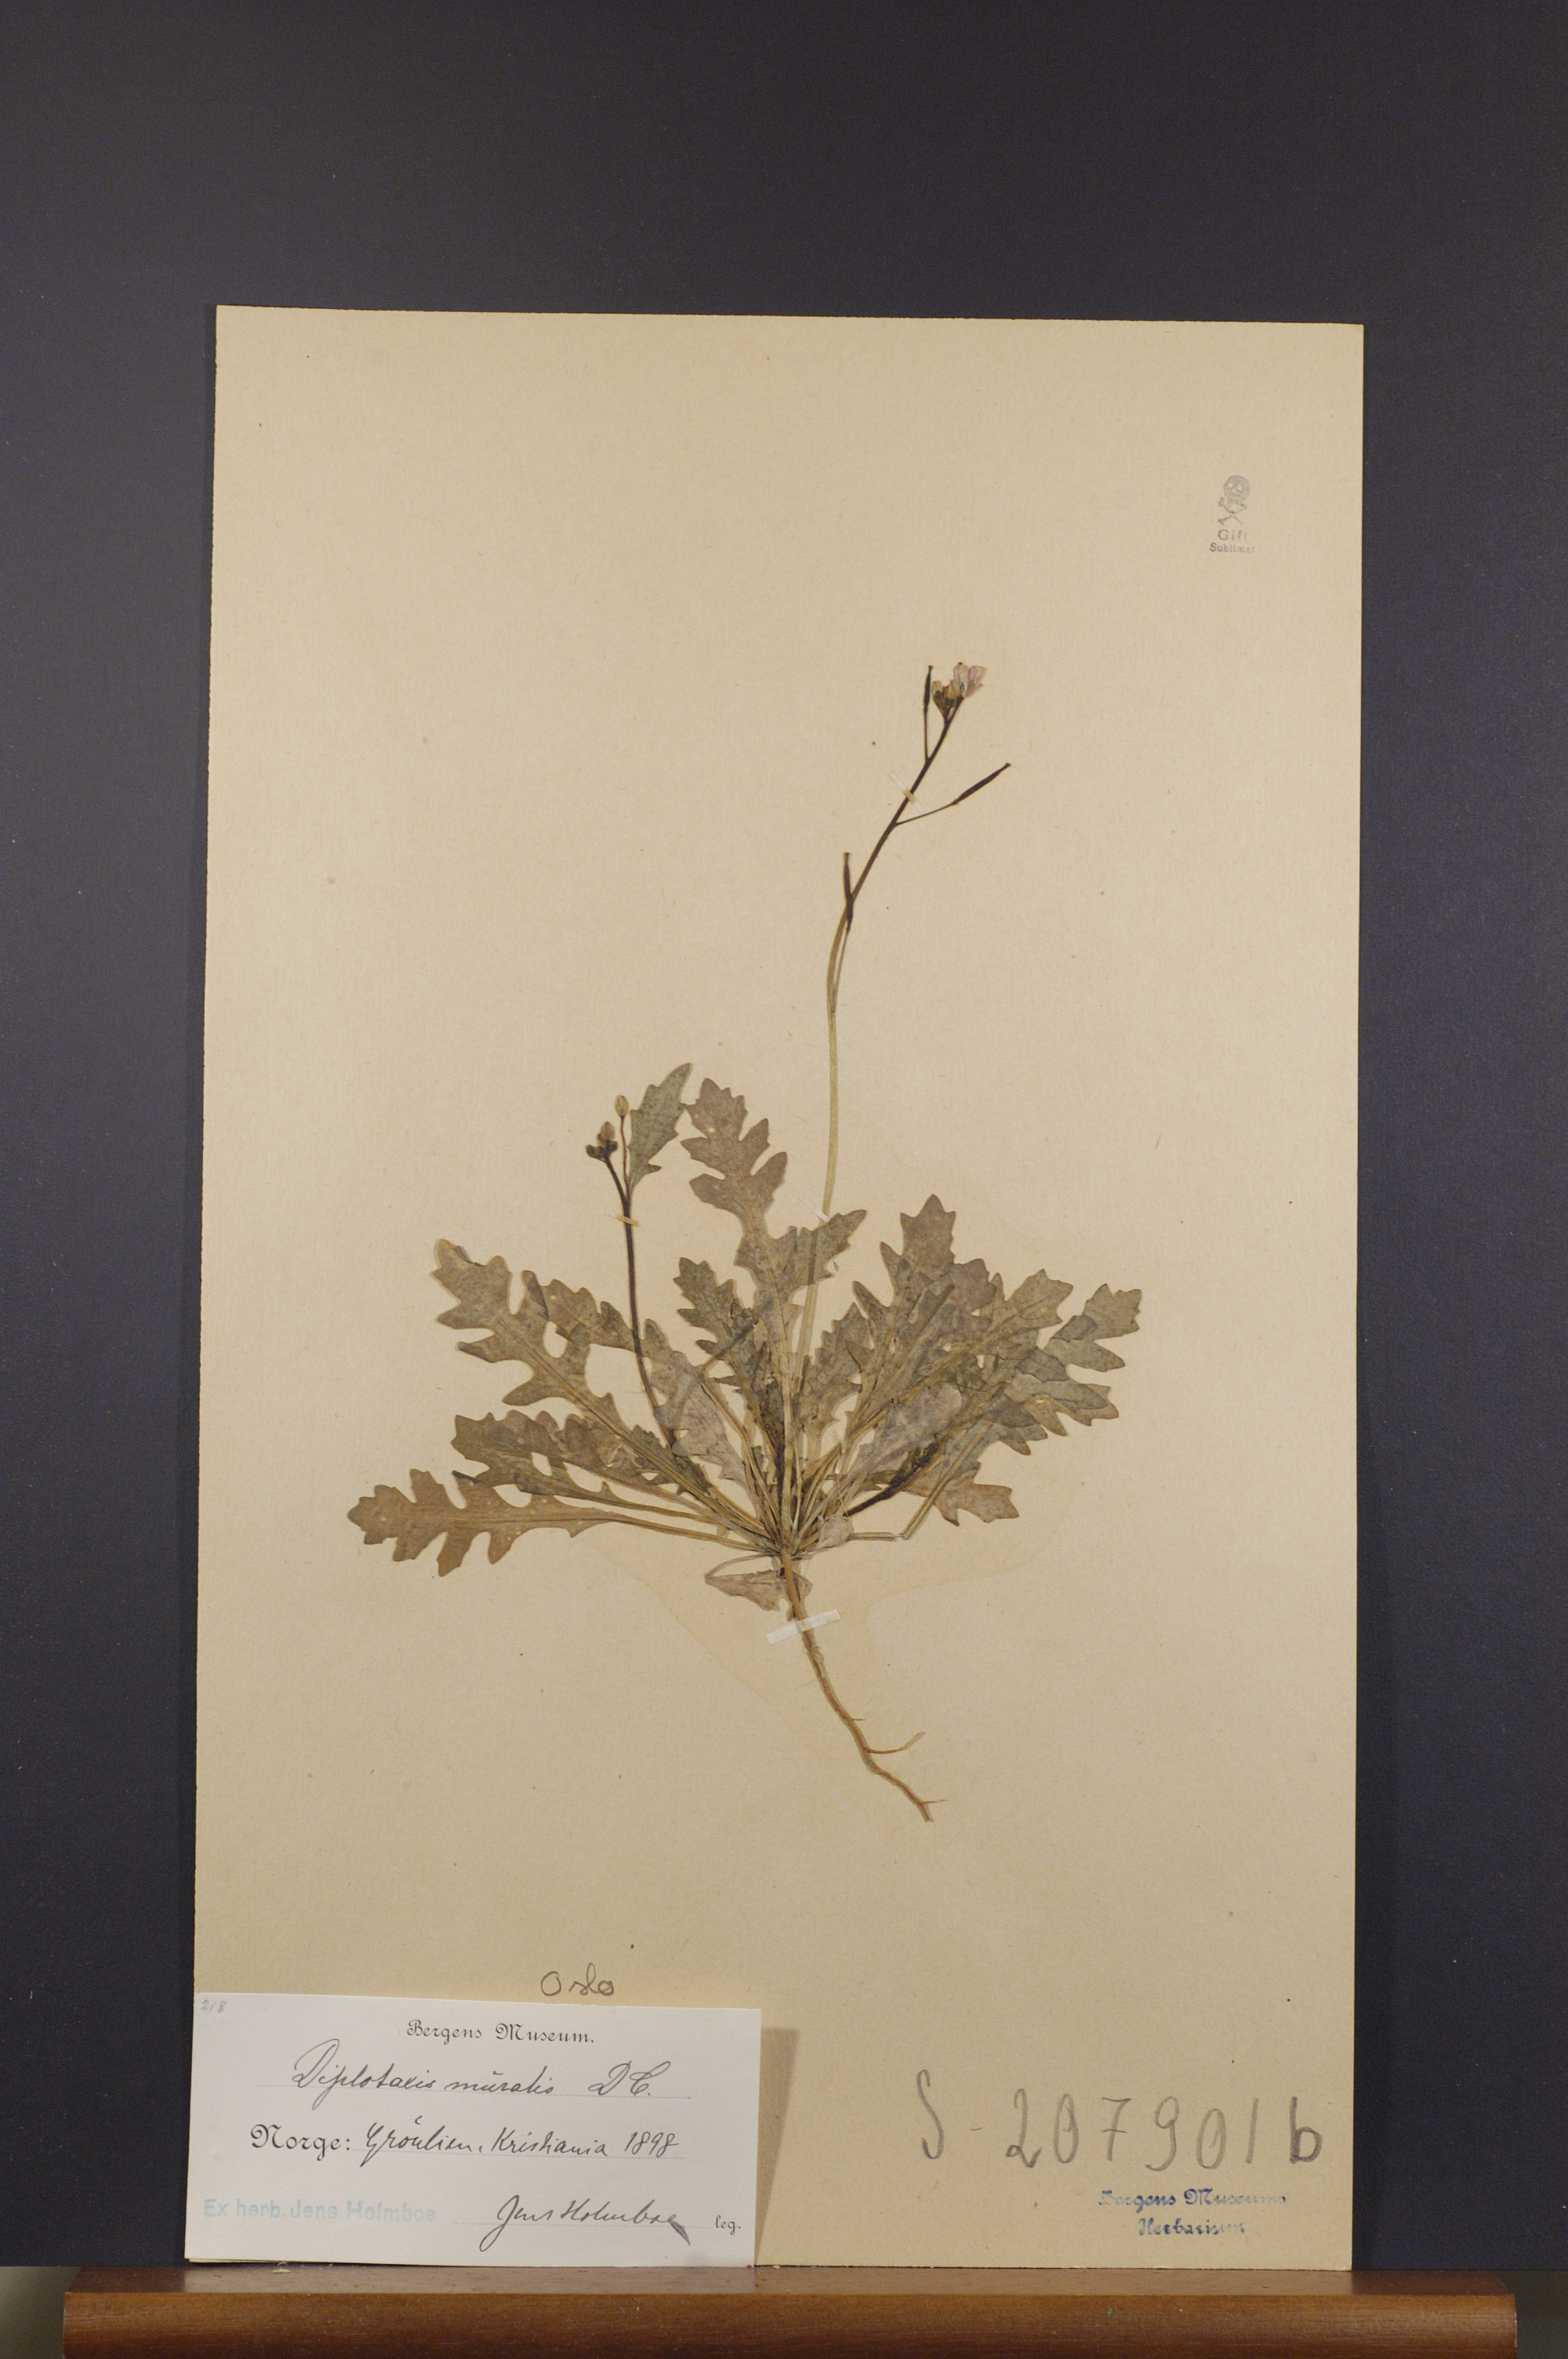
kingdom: Plantae
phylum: Tracheophyta
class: Magnoliopsida
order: Brassicales
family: Brassicaceae
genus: Diplotaxis
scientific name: Diplotaxis muralis
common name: Annual wall-rocket
